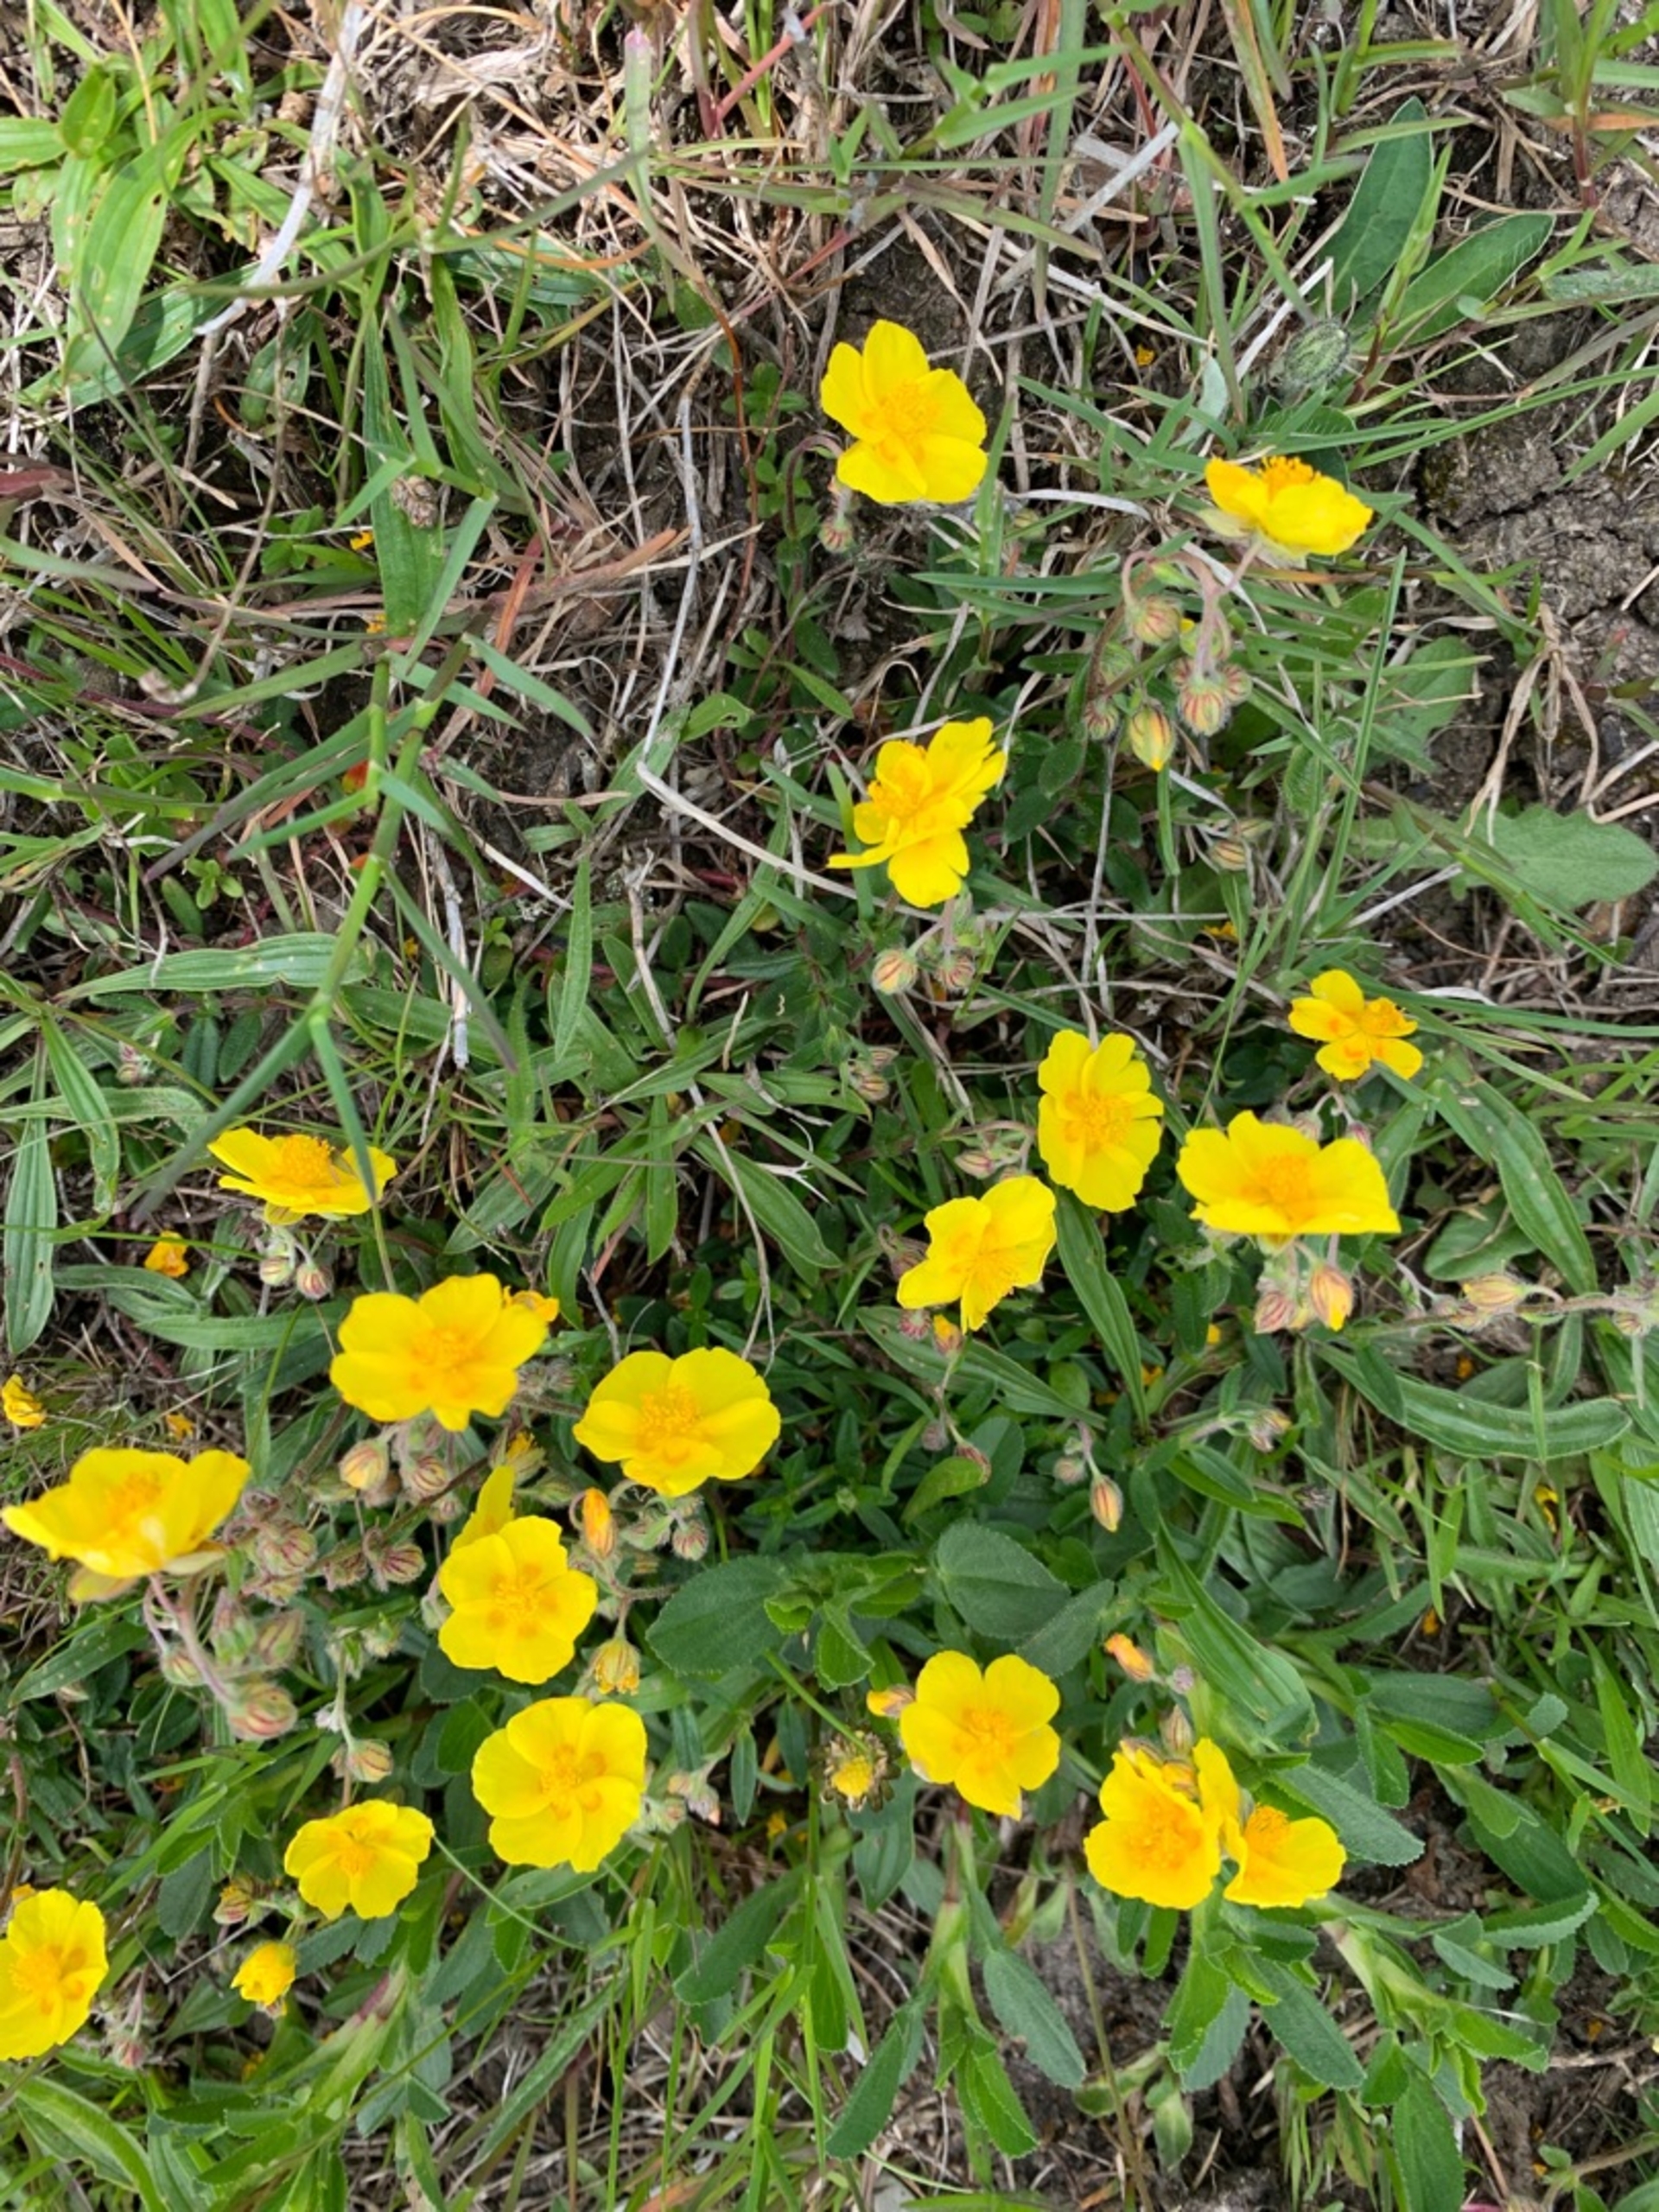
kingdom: Plantae
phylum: Tracheophyta
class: Magnoliopsida
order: Malvales
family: Cistaceae
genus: Helianthemum
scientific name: Helianthemum nummularium
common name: Soløje
